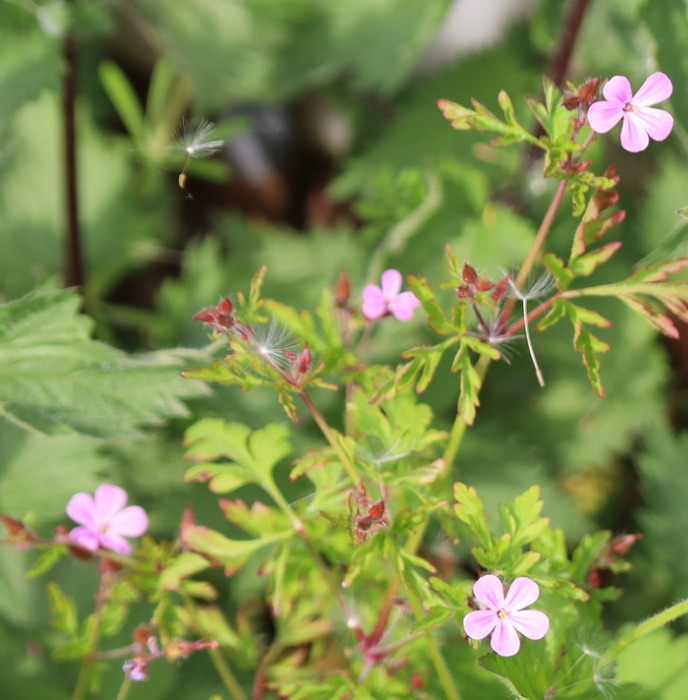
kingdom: Plantae
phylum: Tracheophyta
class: Magnoliopsida
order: Geraniales
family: Geraniaceae
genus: Geranium
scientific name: Geranium robertianum
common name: Stinkende storkenæb
